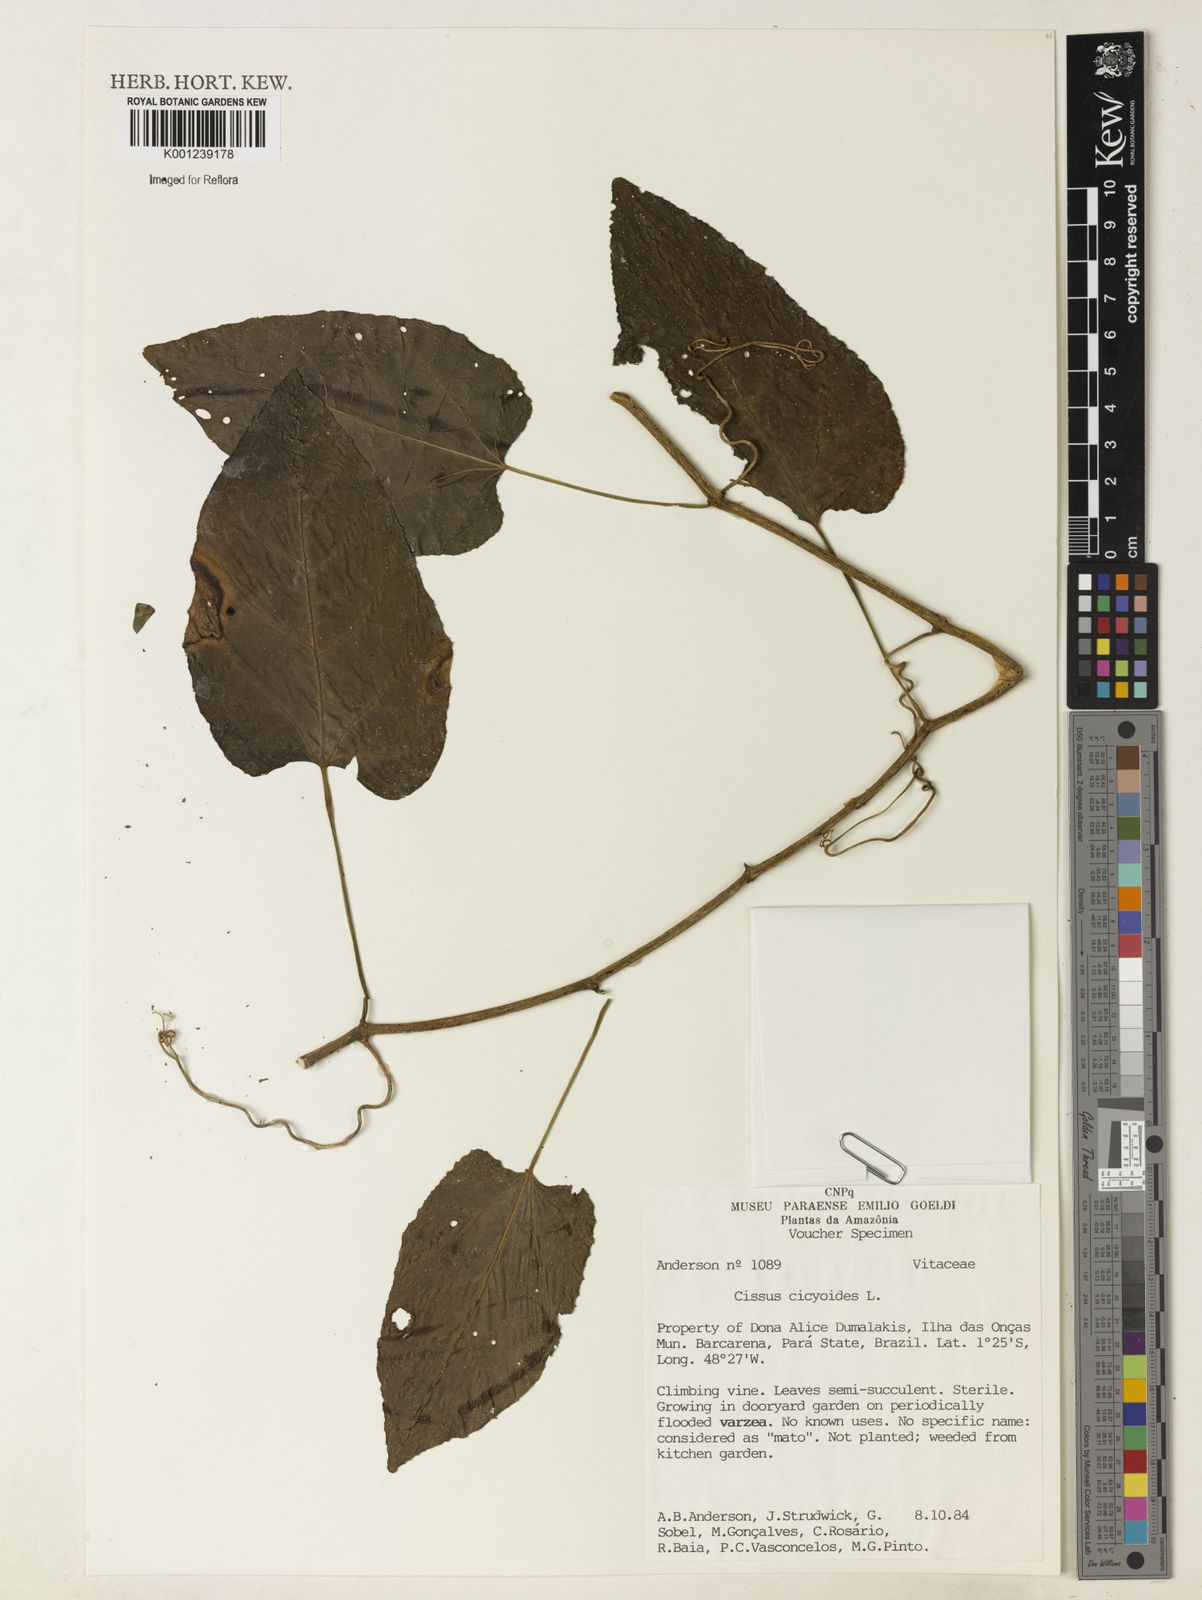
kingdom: Plantae
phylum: Tracheophyta
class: Magnoliopsida
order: Vitales
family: Vitaceae
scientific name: Vitaceae
